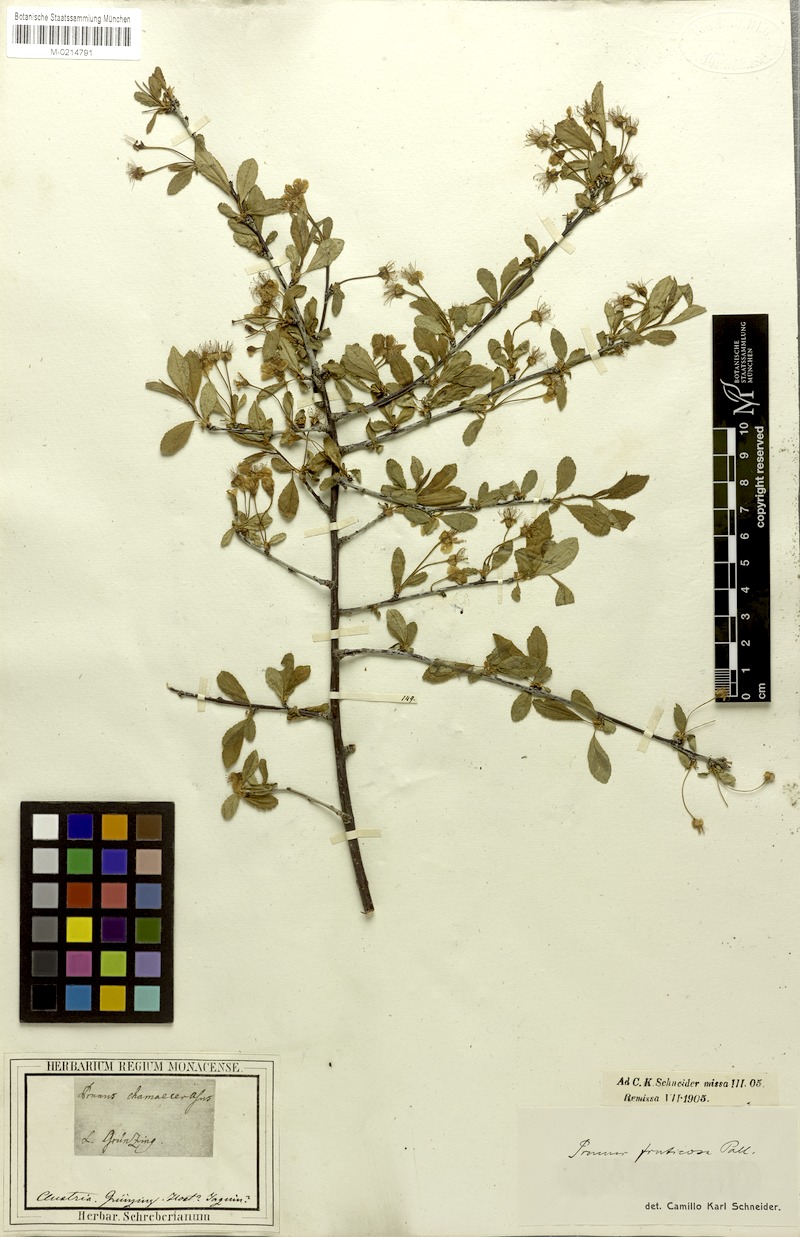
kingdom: Plantae
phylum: Tracheophyta
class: Magnoliopsida
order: Rosales
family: Rosaceae
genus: Prunus
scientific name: Prunus fruticosa
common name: European dwarf cherry
